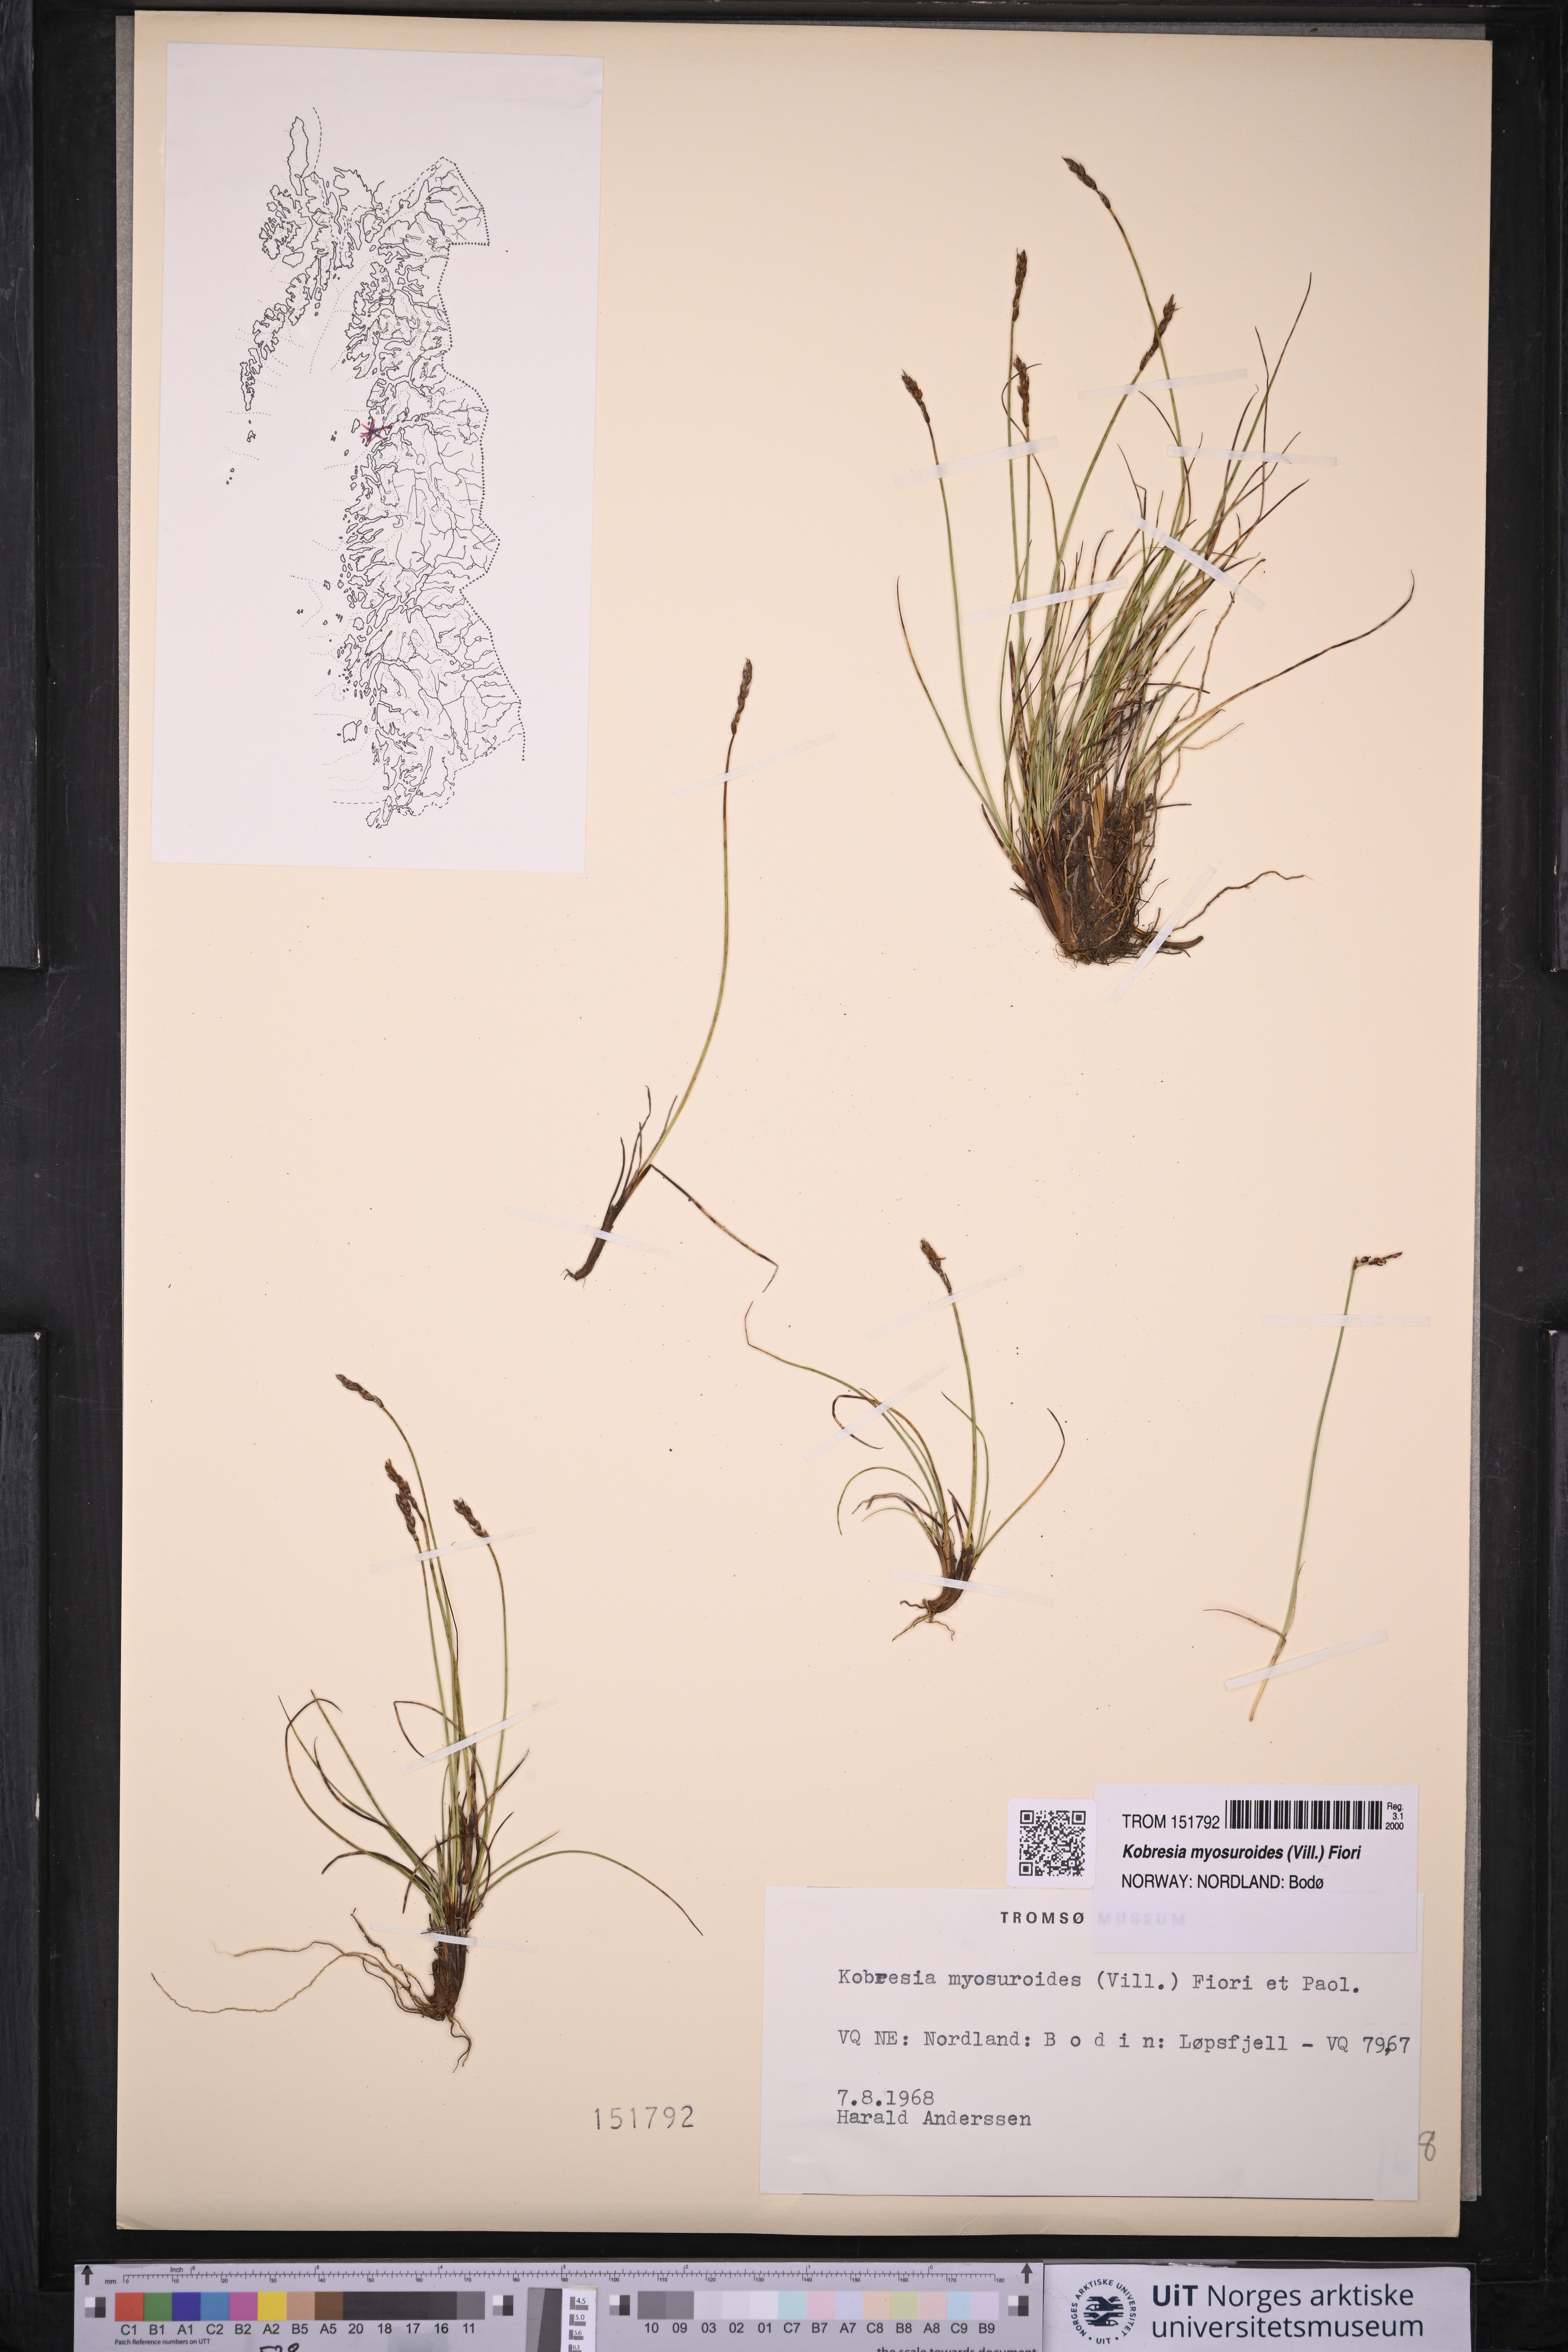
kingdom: Plantae
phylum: Tracheophyta
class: Liliopsida
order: Poales
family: Cyperaceae
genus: Carex
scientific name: Carex myosuroides
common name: Bellard's bog sedge
